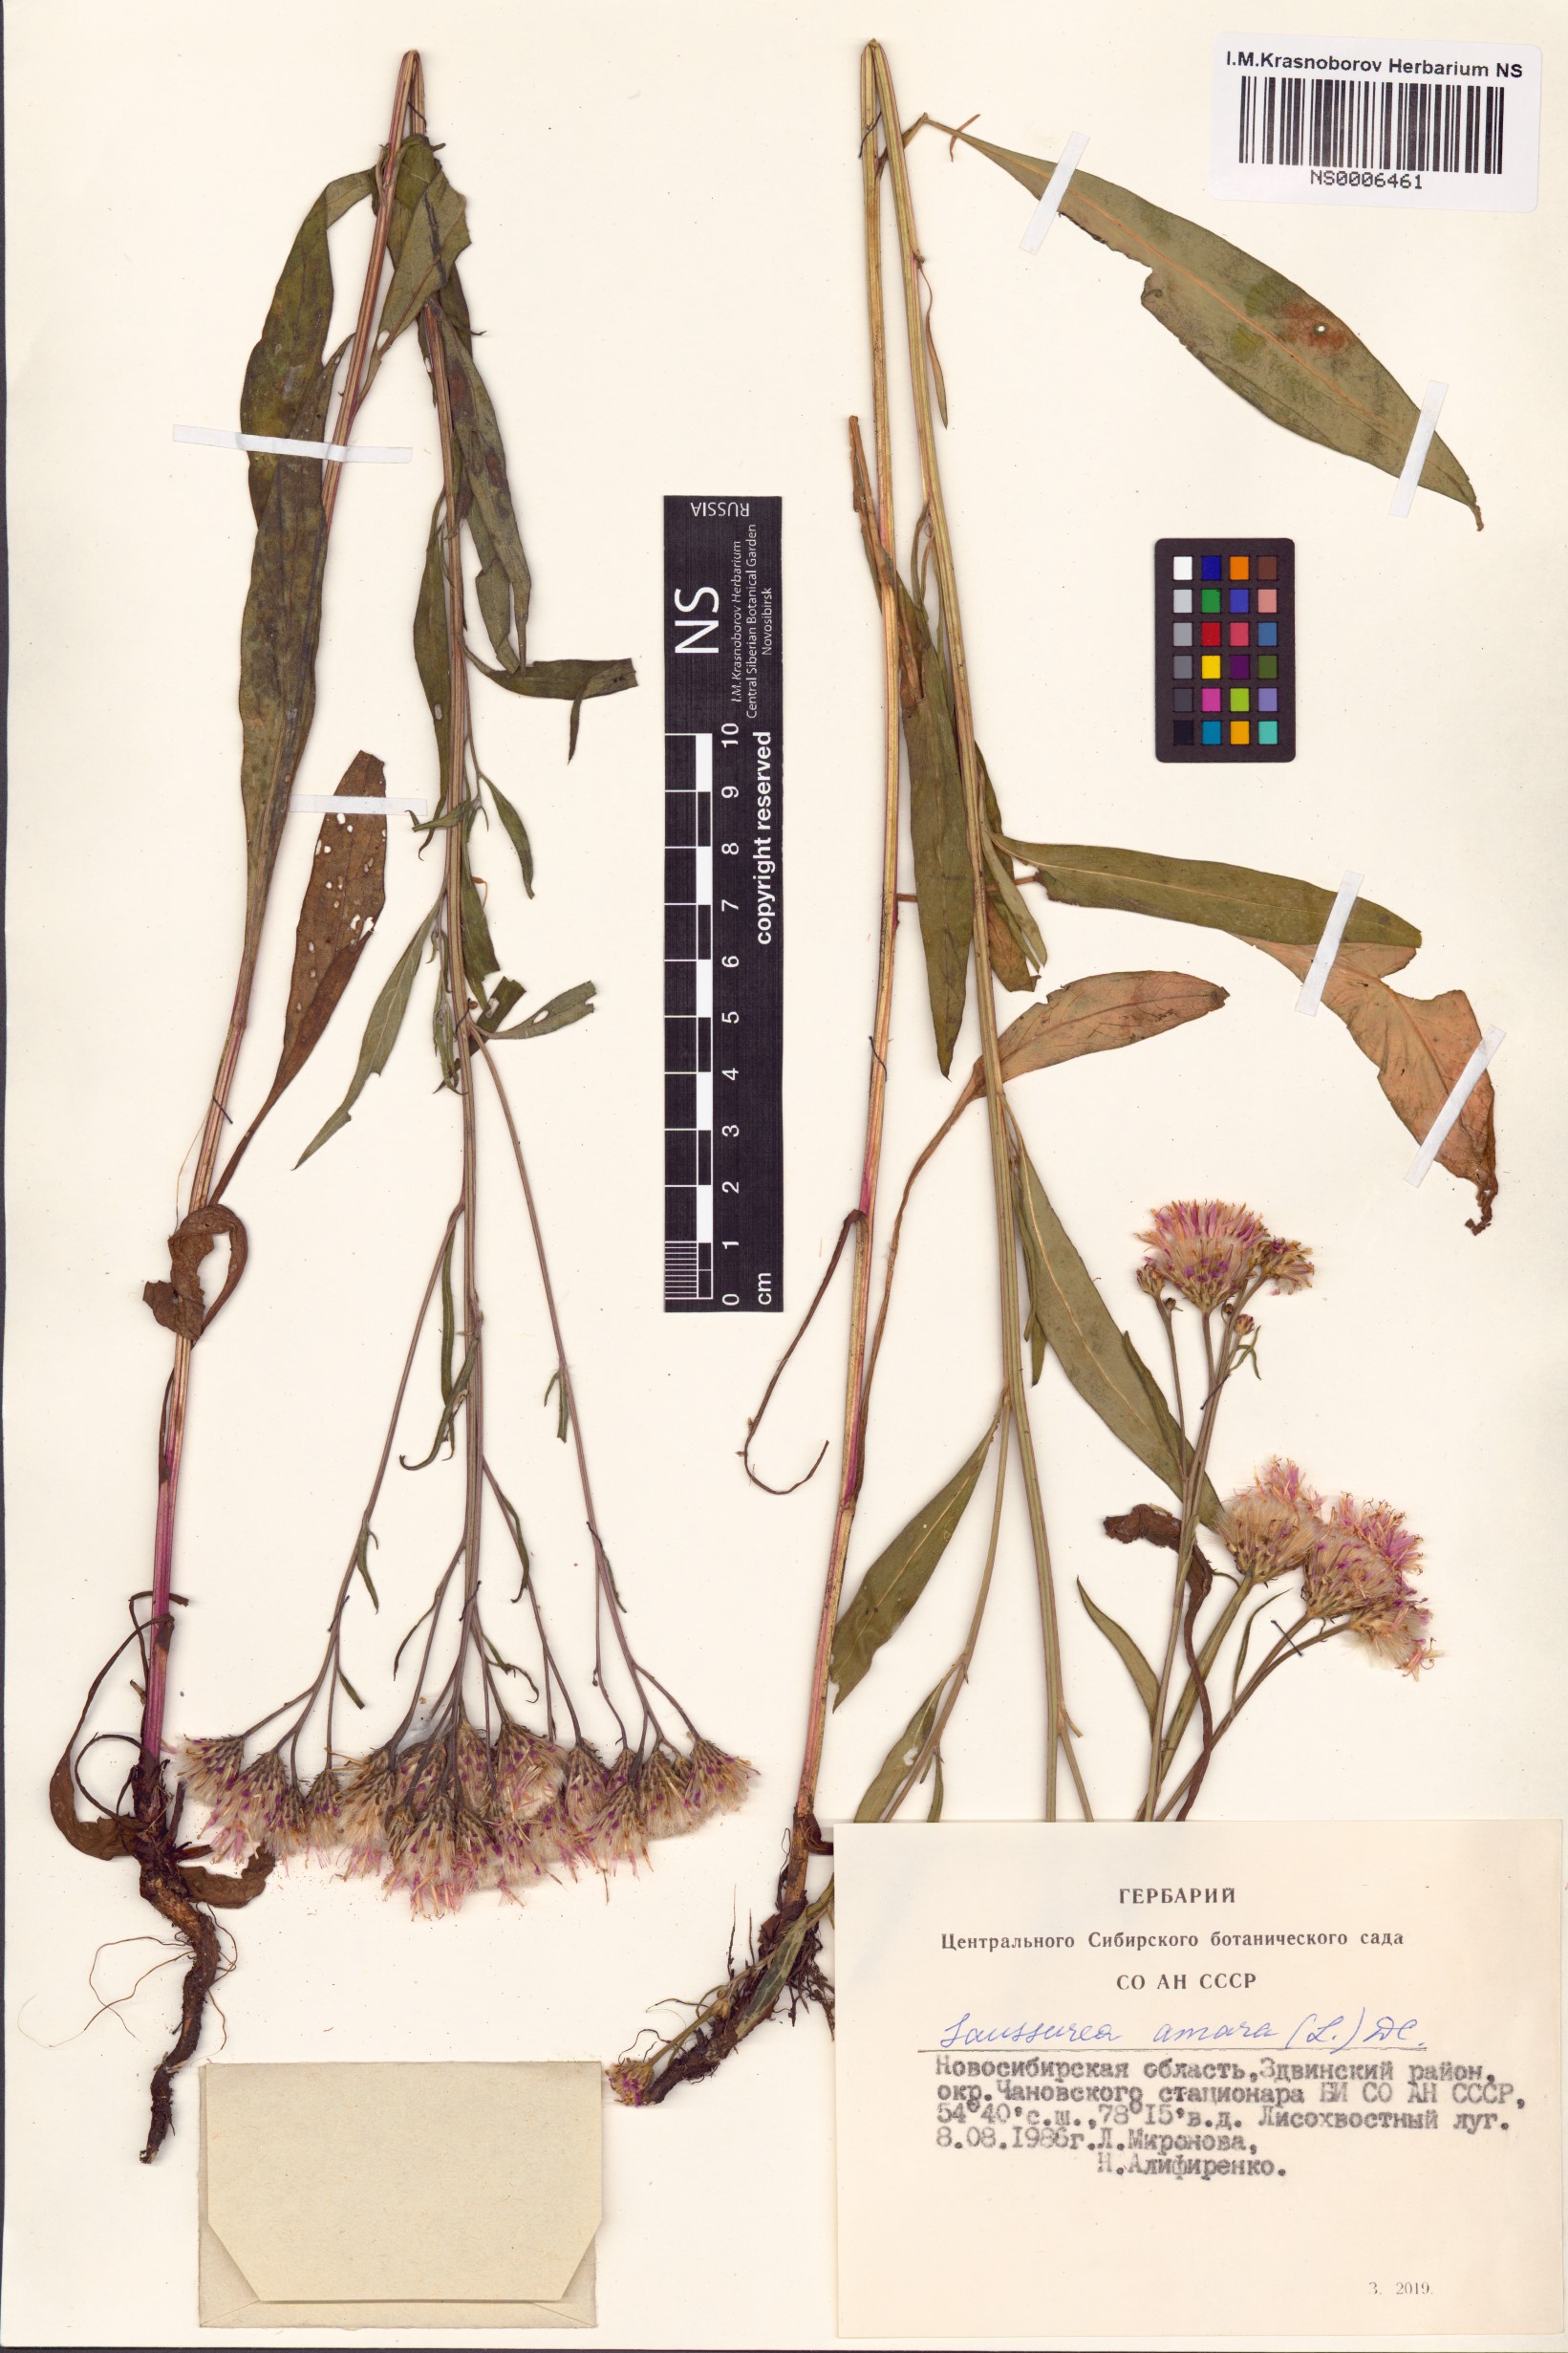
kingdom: Plantae
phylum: Tracheophyta
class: Magnoliopsida
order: Asterales
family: Asteraceae
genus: Saussurea
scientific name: Saussurea amara
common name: Alberta sawwort
